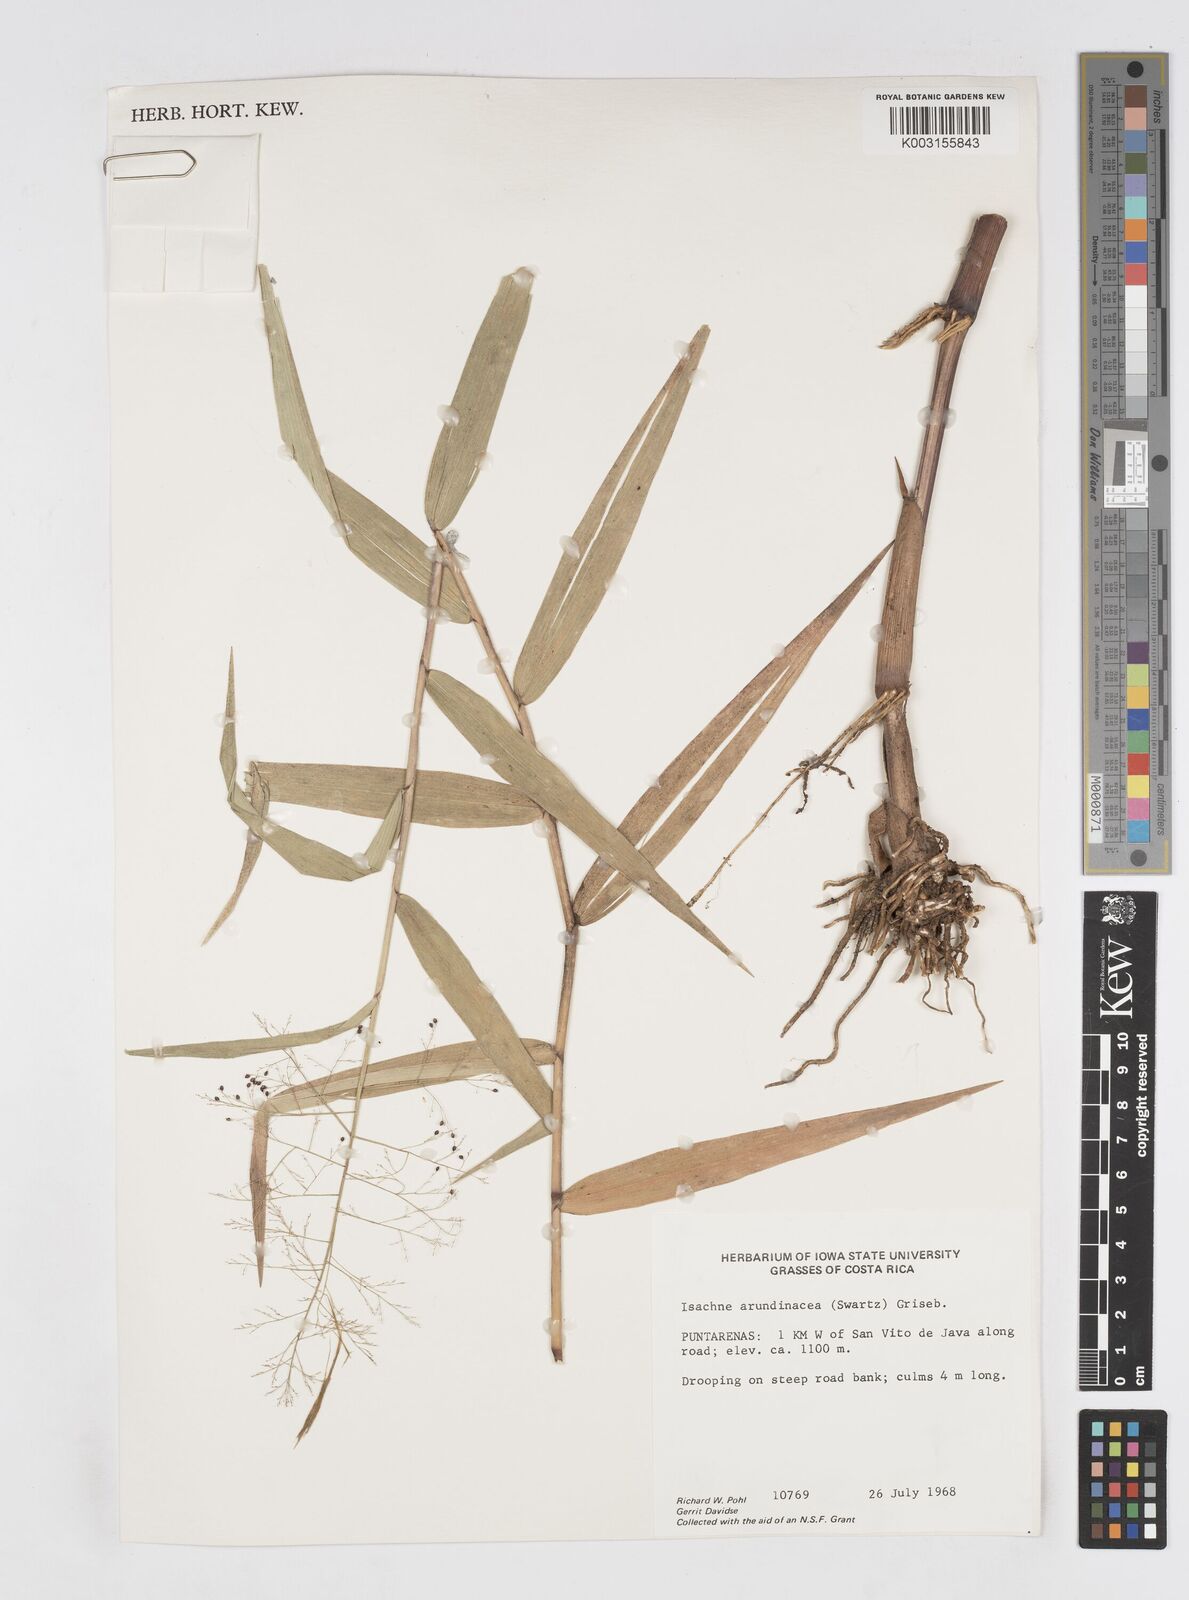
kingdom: Plantae
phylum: Tracheophyta
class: Liliopsida
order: Poales
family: Poaceae
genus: Isachne
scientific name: Isachne arundinacea
